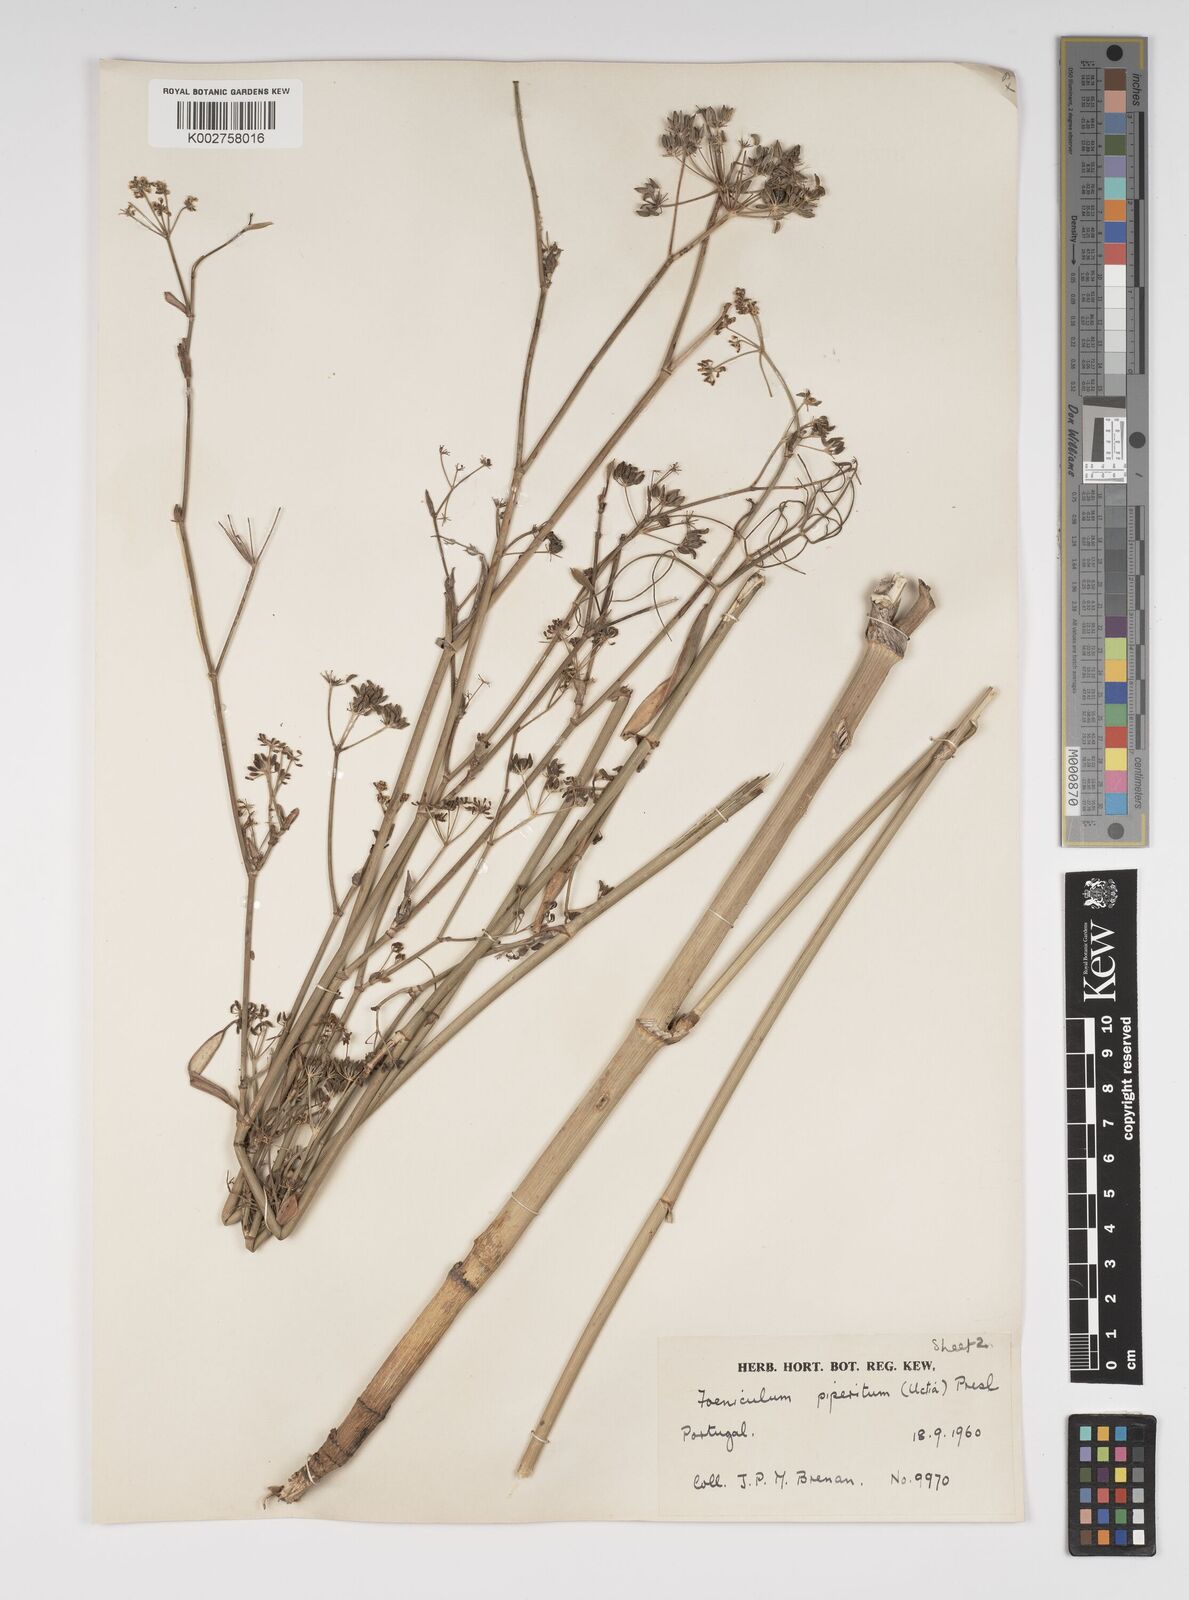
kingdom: Plantae
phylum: Tracheophyta
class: Magnoliopsida
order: Apiales
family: Apiaceae
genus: Foeniculum
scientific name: Foeniculum vulgare
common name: Fennel
